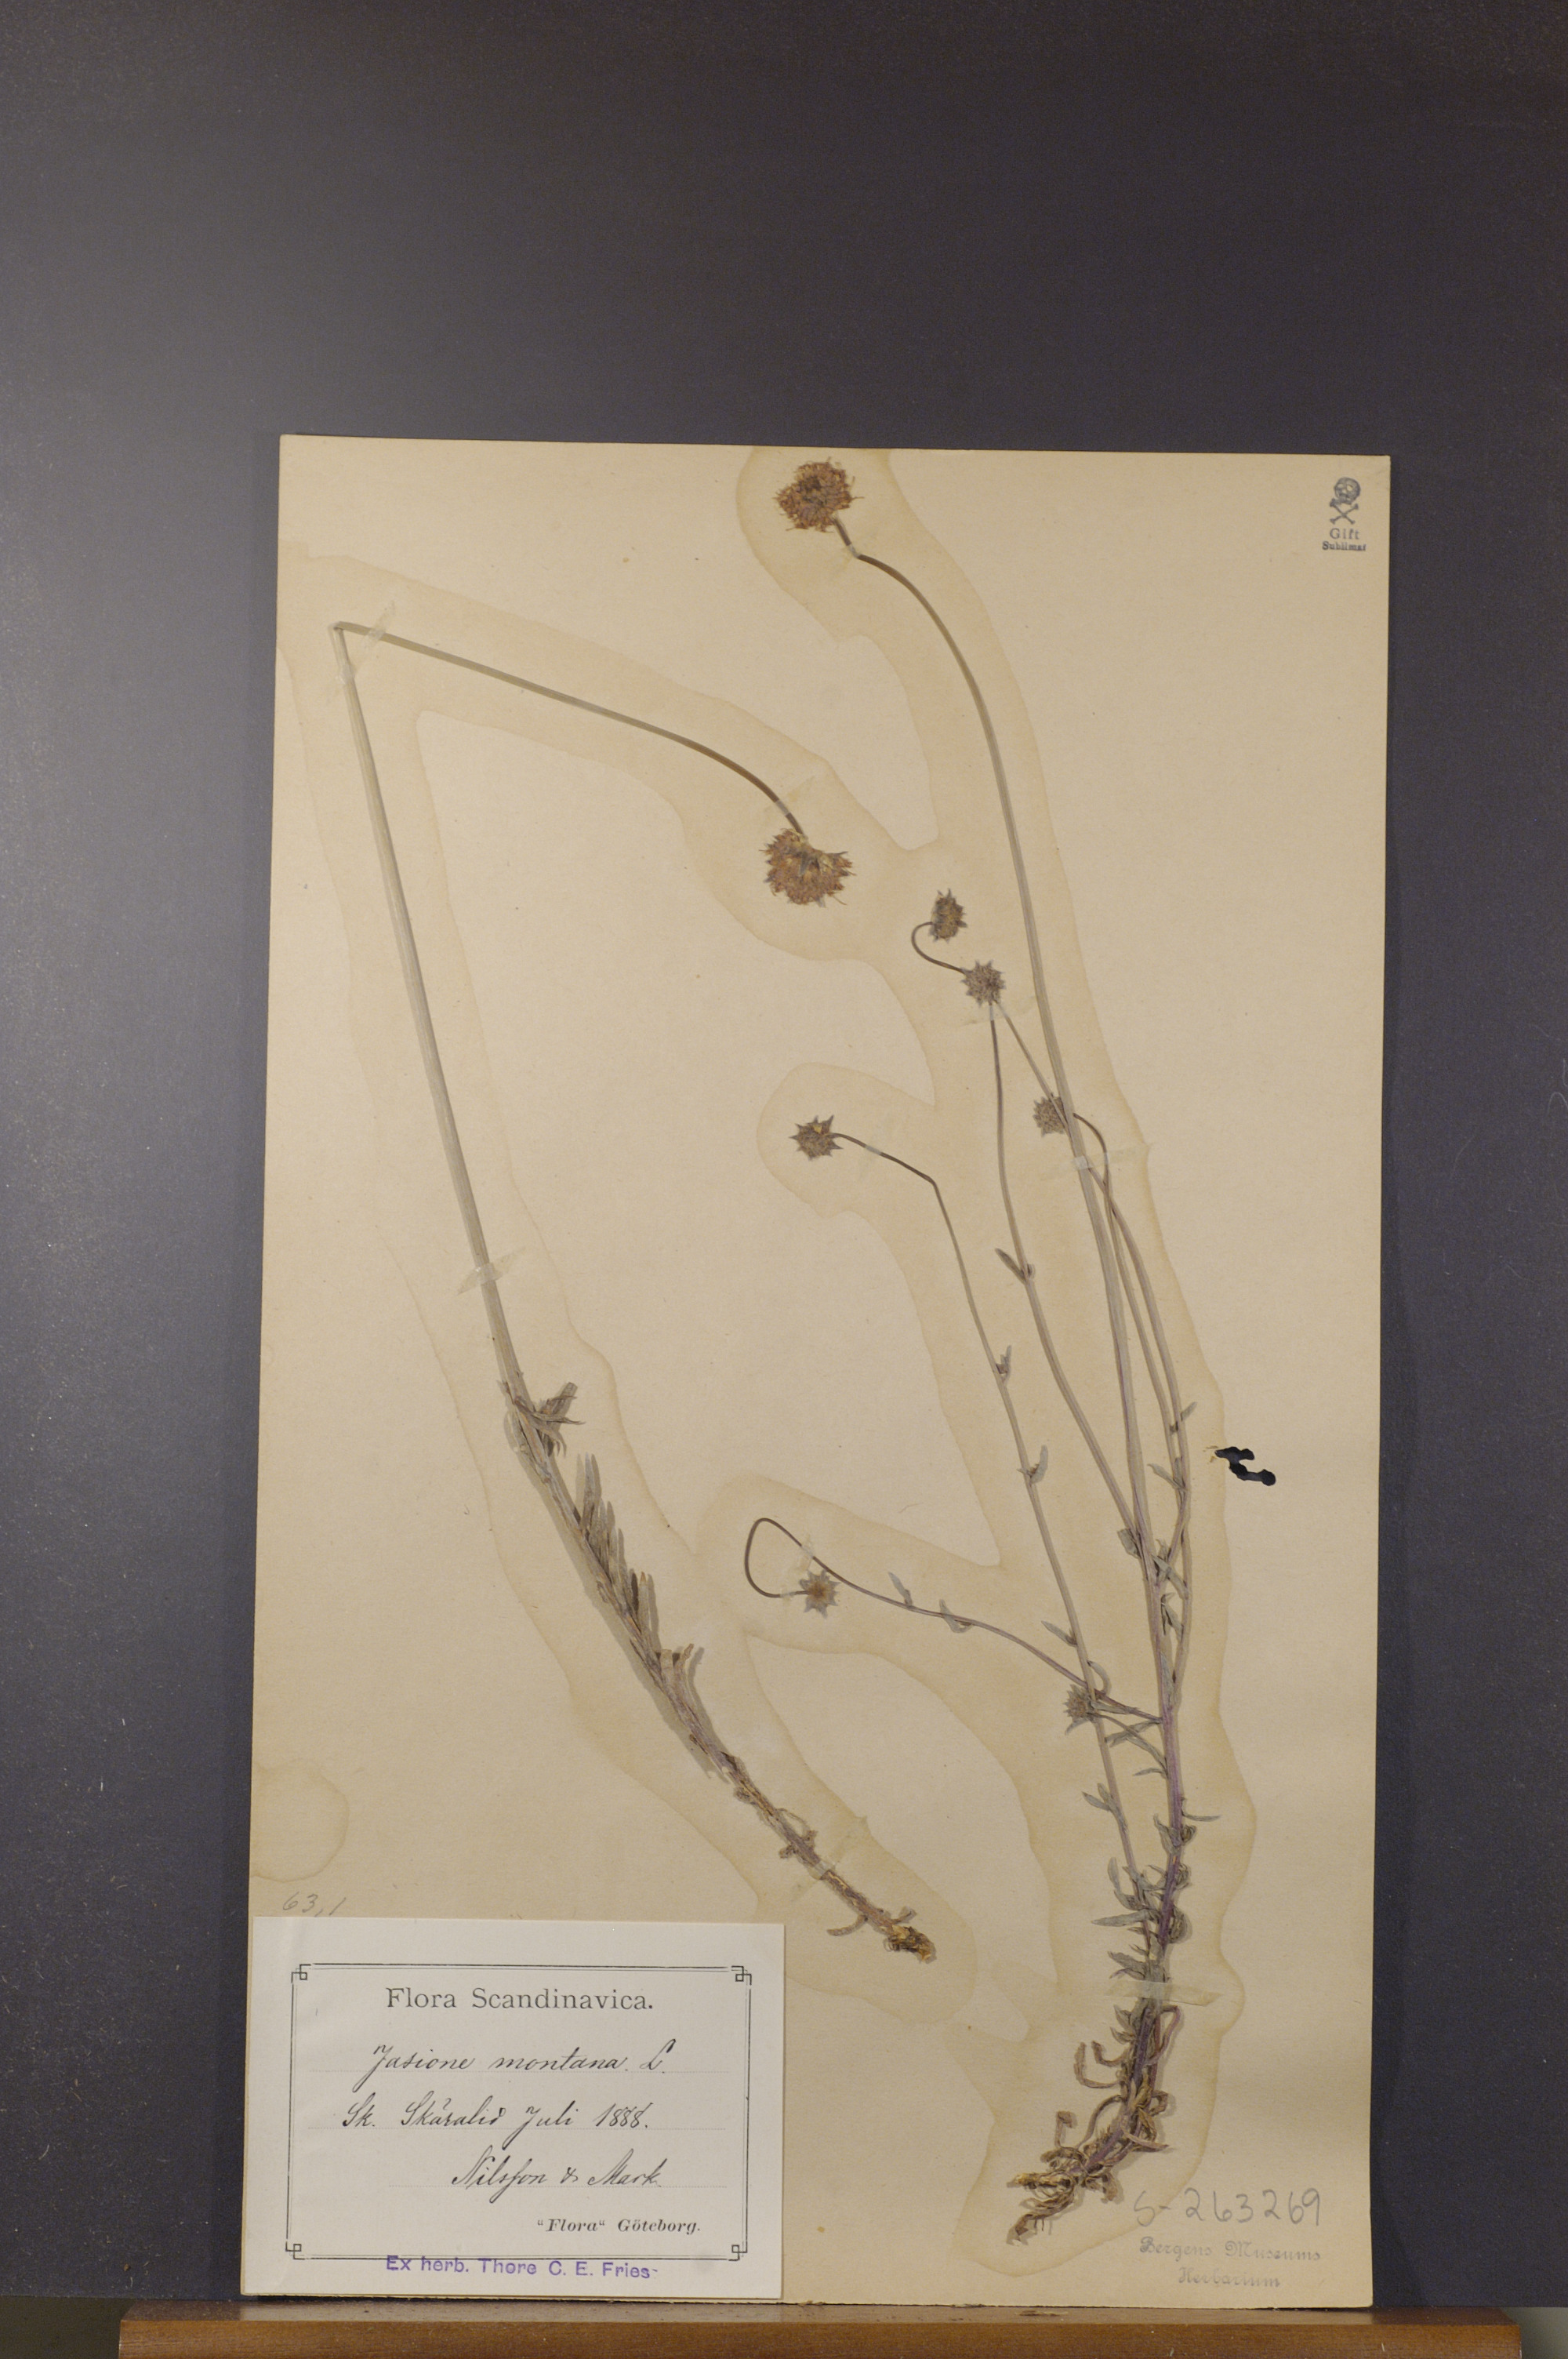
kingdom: Plantae
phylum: Tracheophyta
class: Magnoliopsida
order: Asterales
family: Campanulaceae
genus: Jasione
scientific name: Jasione montana
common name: Sheep's-bit
